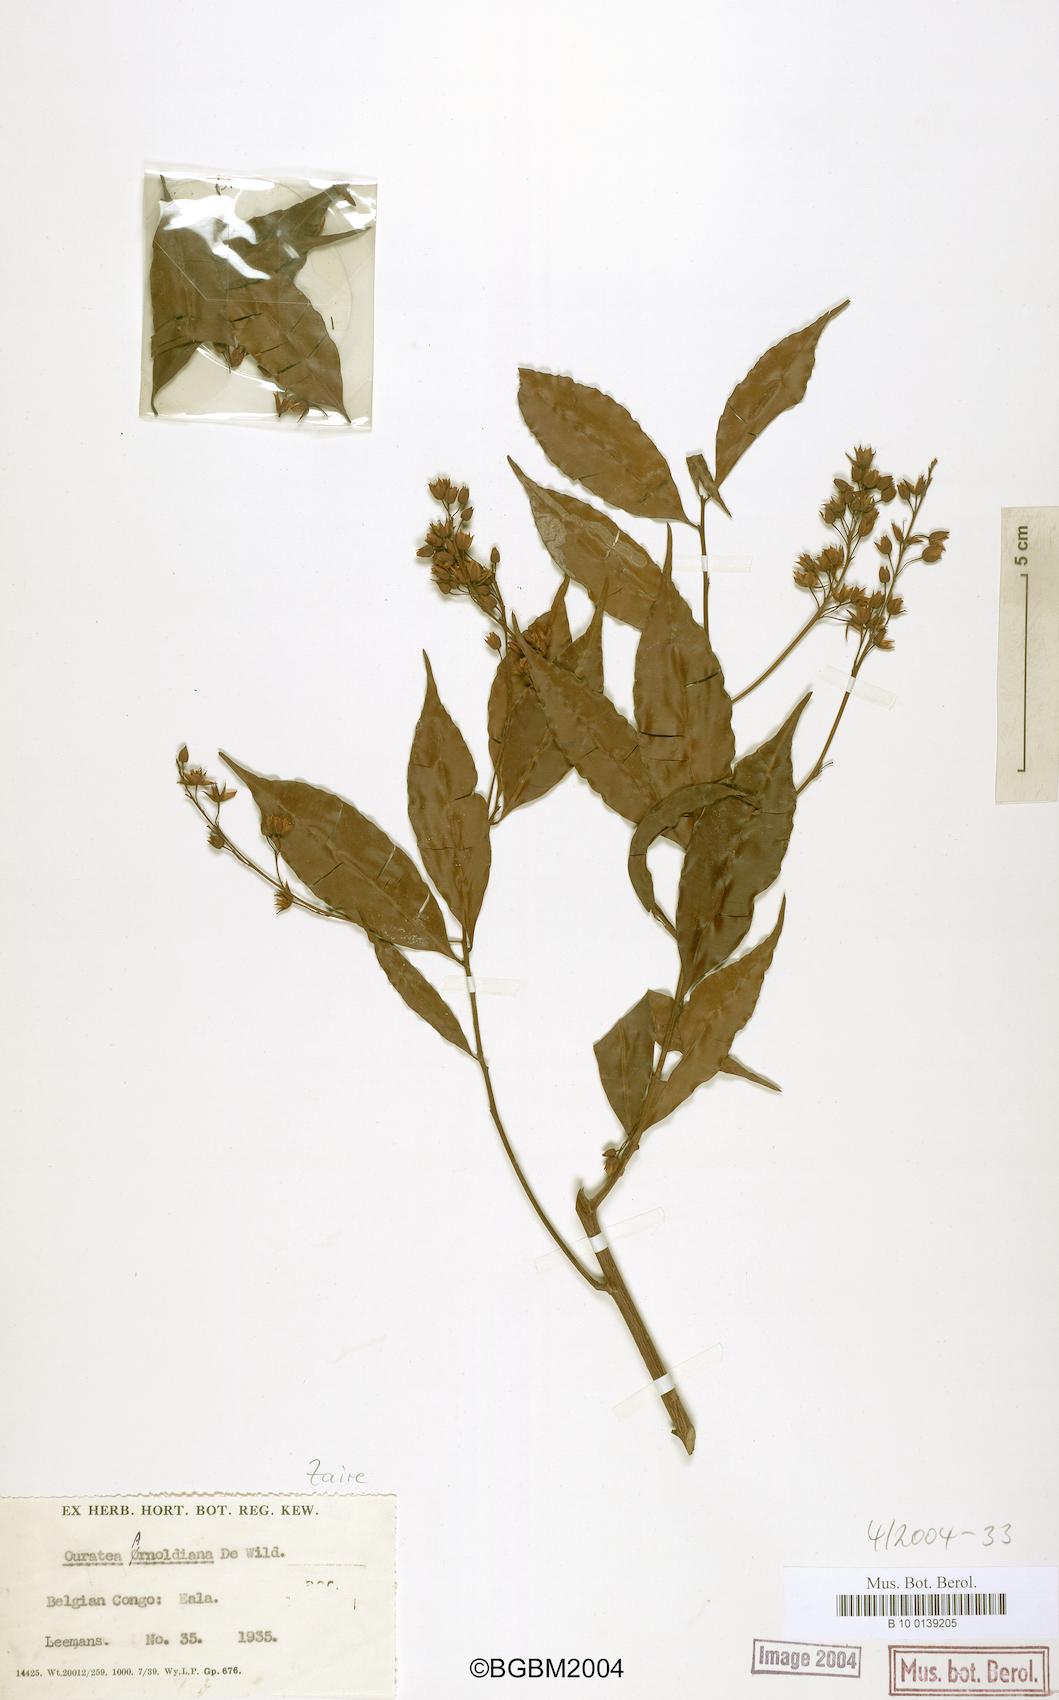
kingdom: Plantae
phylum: Tracheophyta
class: Magnoliopsida
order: Malpighiales
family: Ochnaceae
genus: Rhabdophyllum
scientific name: Rhabdophyllum arnoldianum
